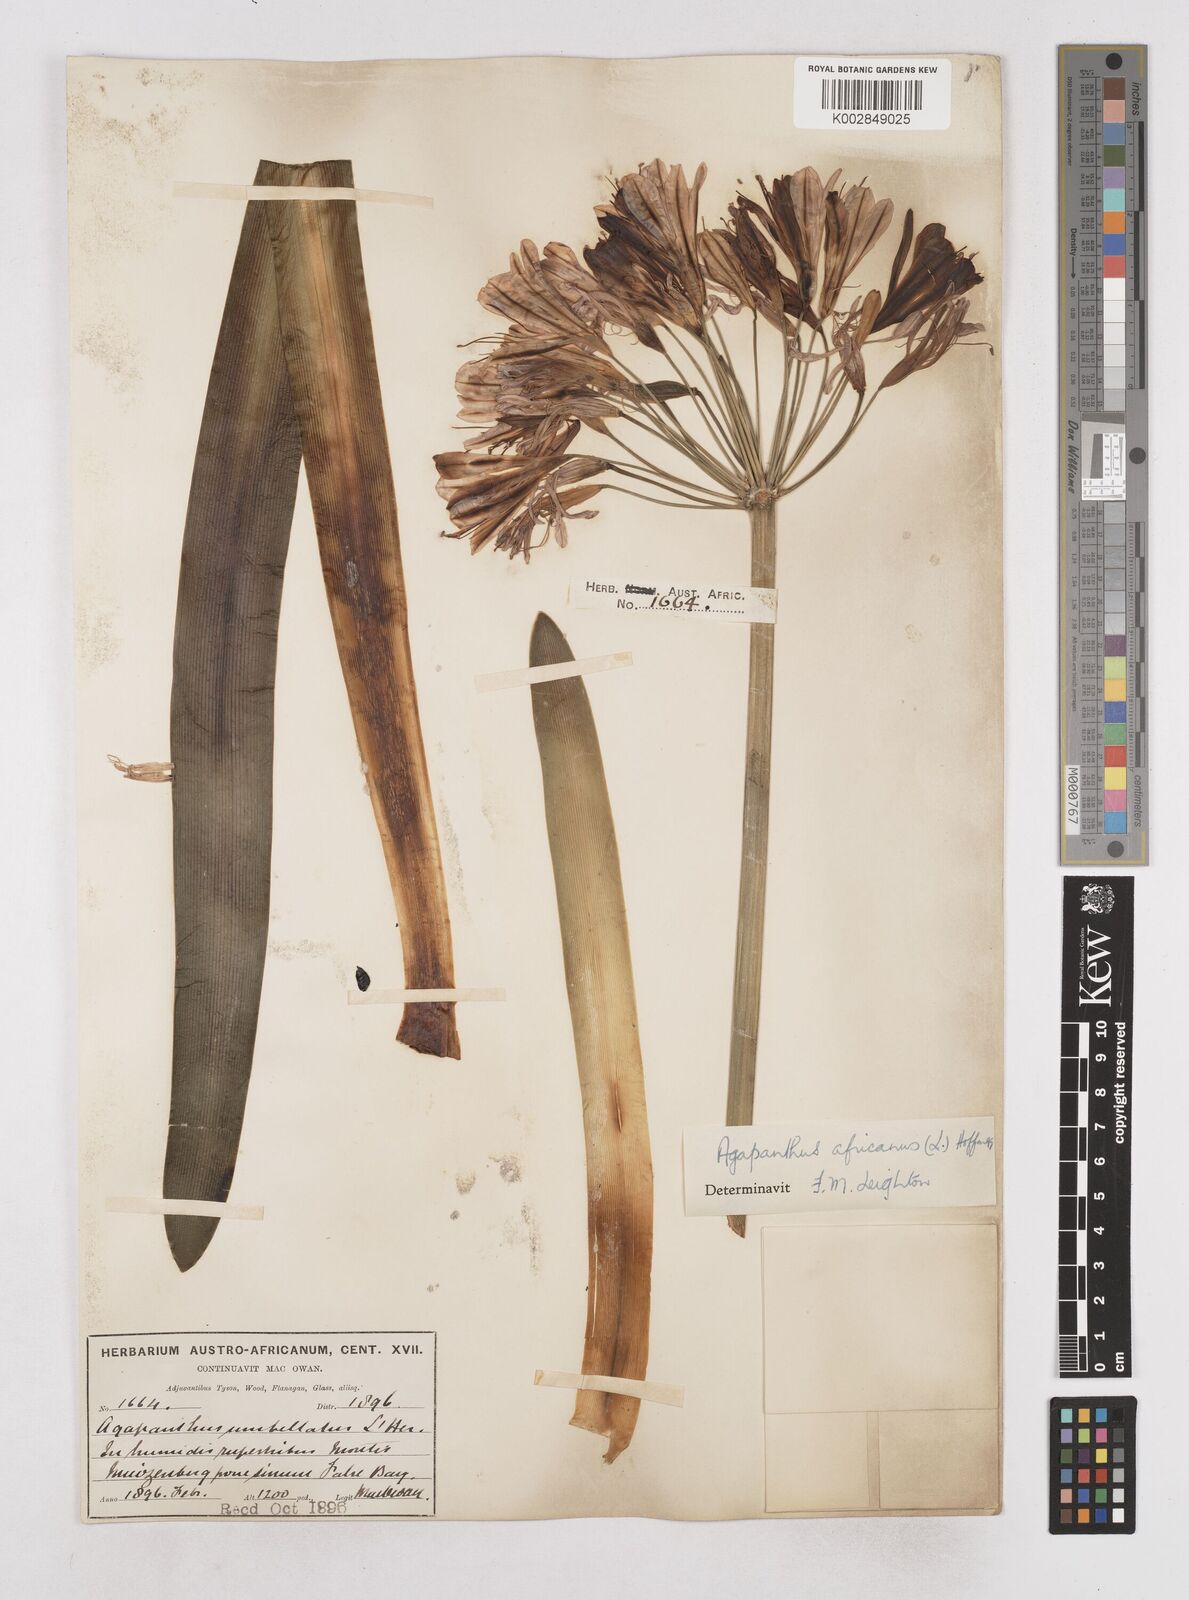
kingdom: Plantae
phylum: Tracheophyta
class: Liliopsida
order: Asparagales
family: Amaryllidaceae
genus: Agapanthus
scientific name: Agapanthus africanus
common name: Lily-of-the-nile
